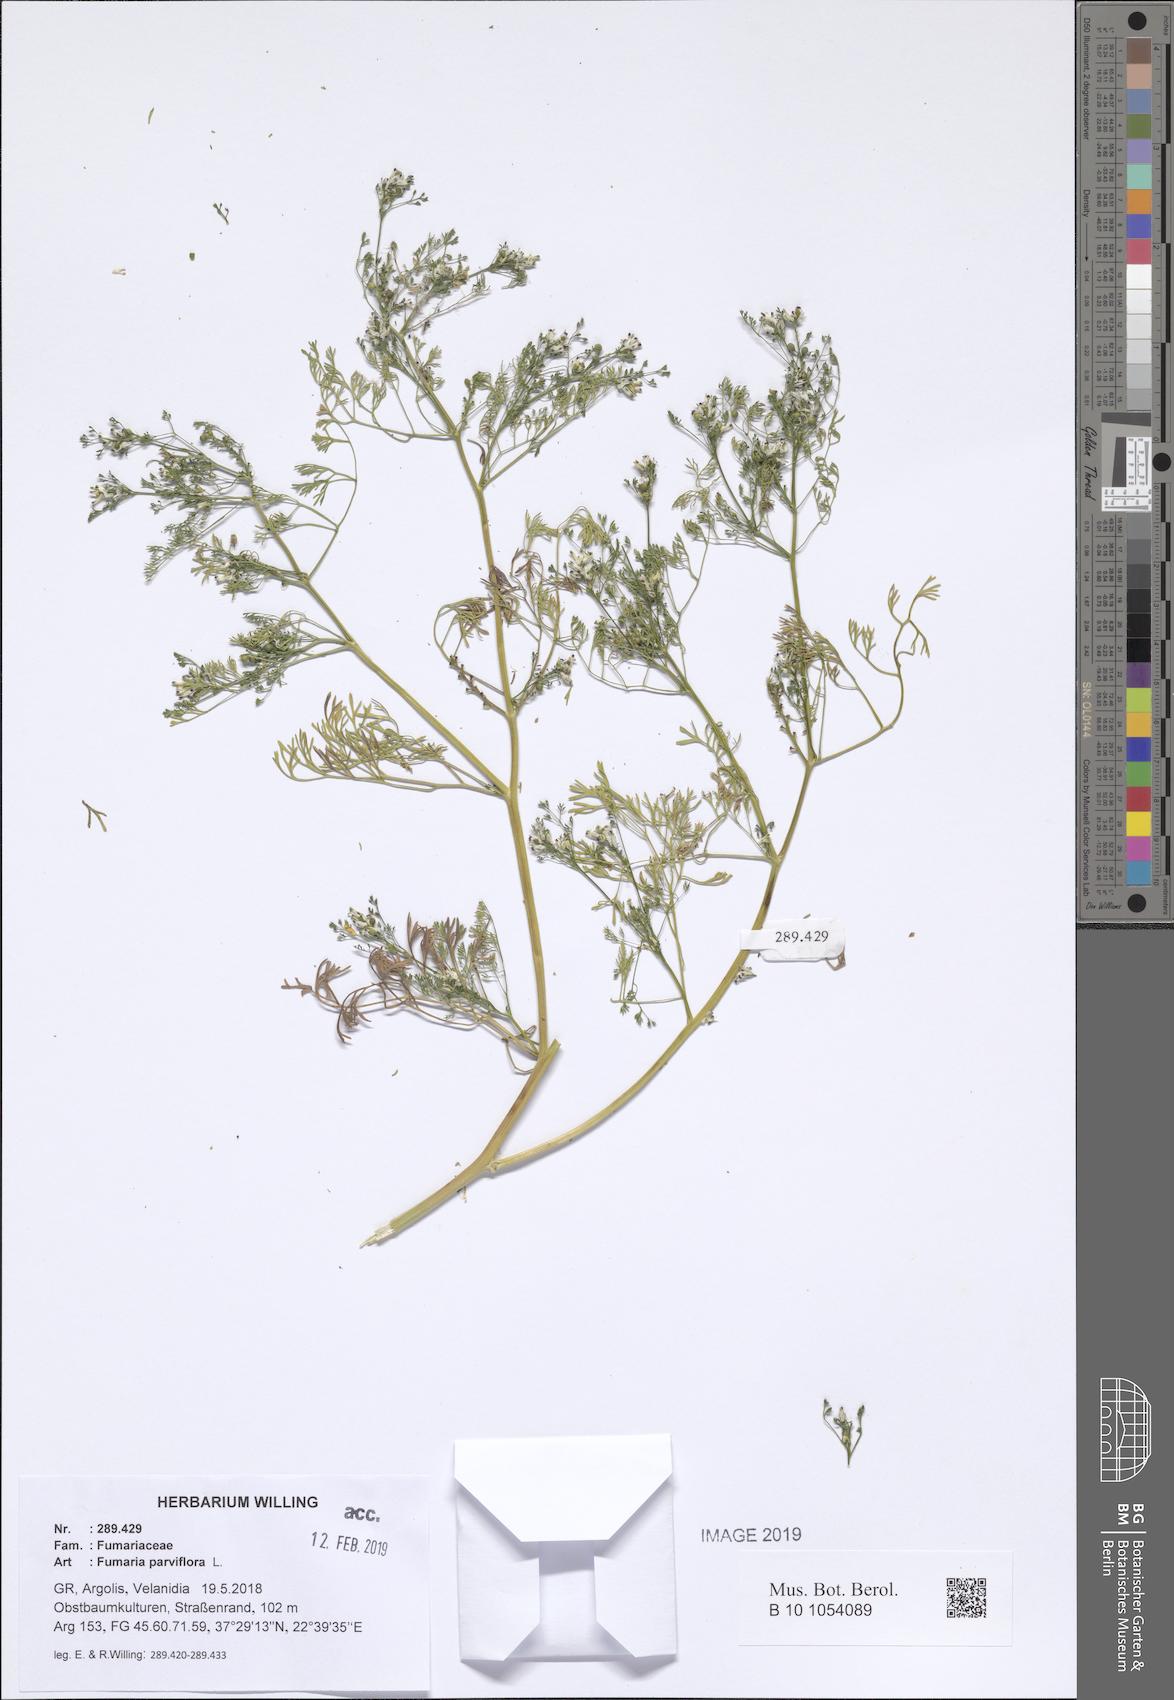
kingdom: Plantae
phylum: Tracheophyta
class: Magnoliopsida
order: Ranunculales
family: Papaveraceae
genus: Fumaria
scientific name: Fumaria parviflora
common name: Fine-leaved fumitory
